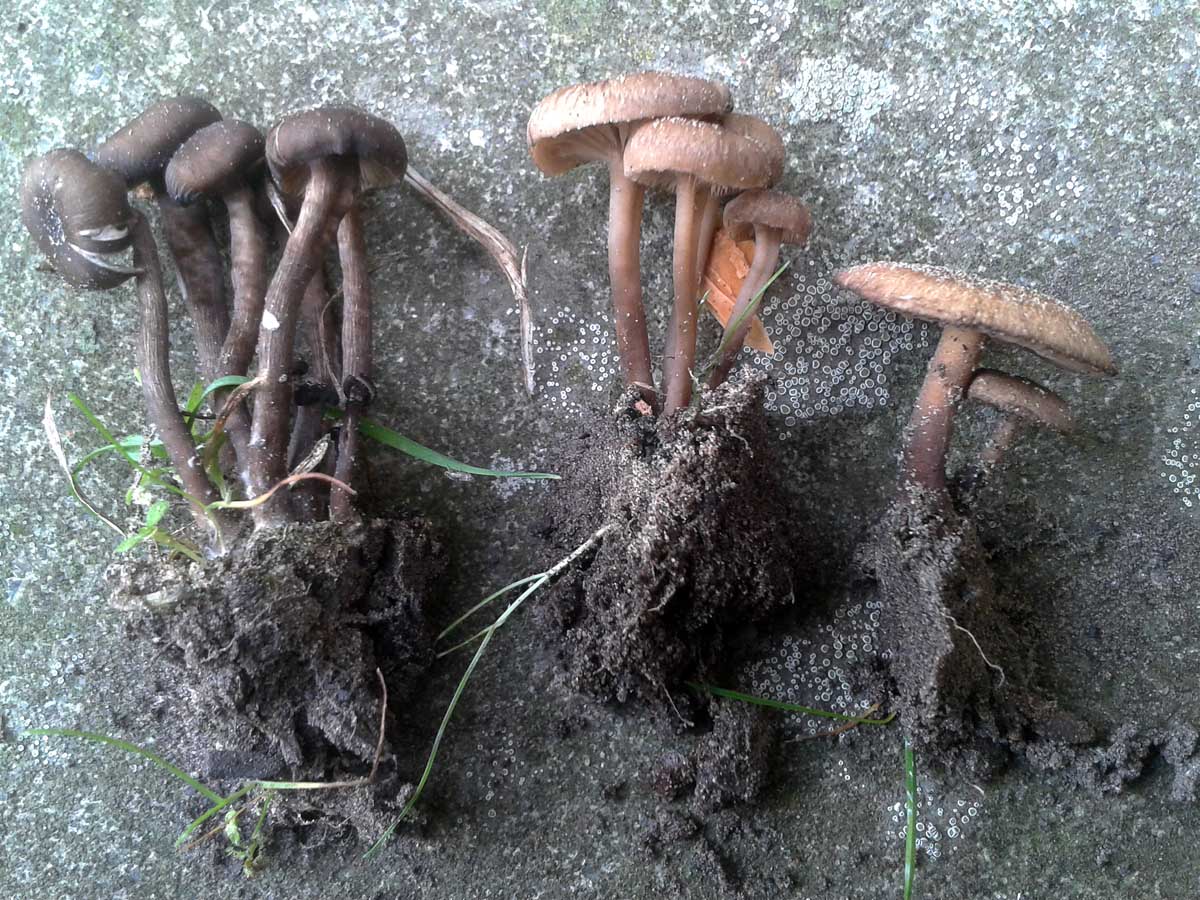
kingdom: Fungi
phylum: Basidiomycota
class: Agaricomycetes
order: Agaricales
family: Tricholomataceae
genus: Myxomphalia
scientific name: Myxomphalia maura
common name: kulhat
